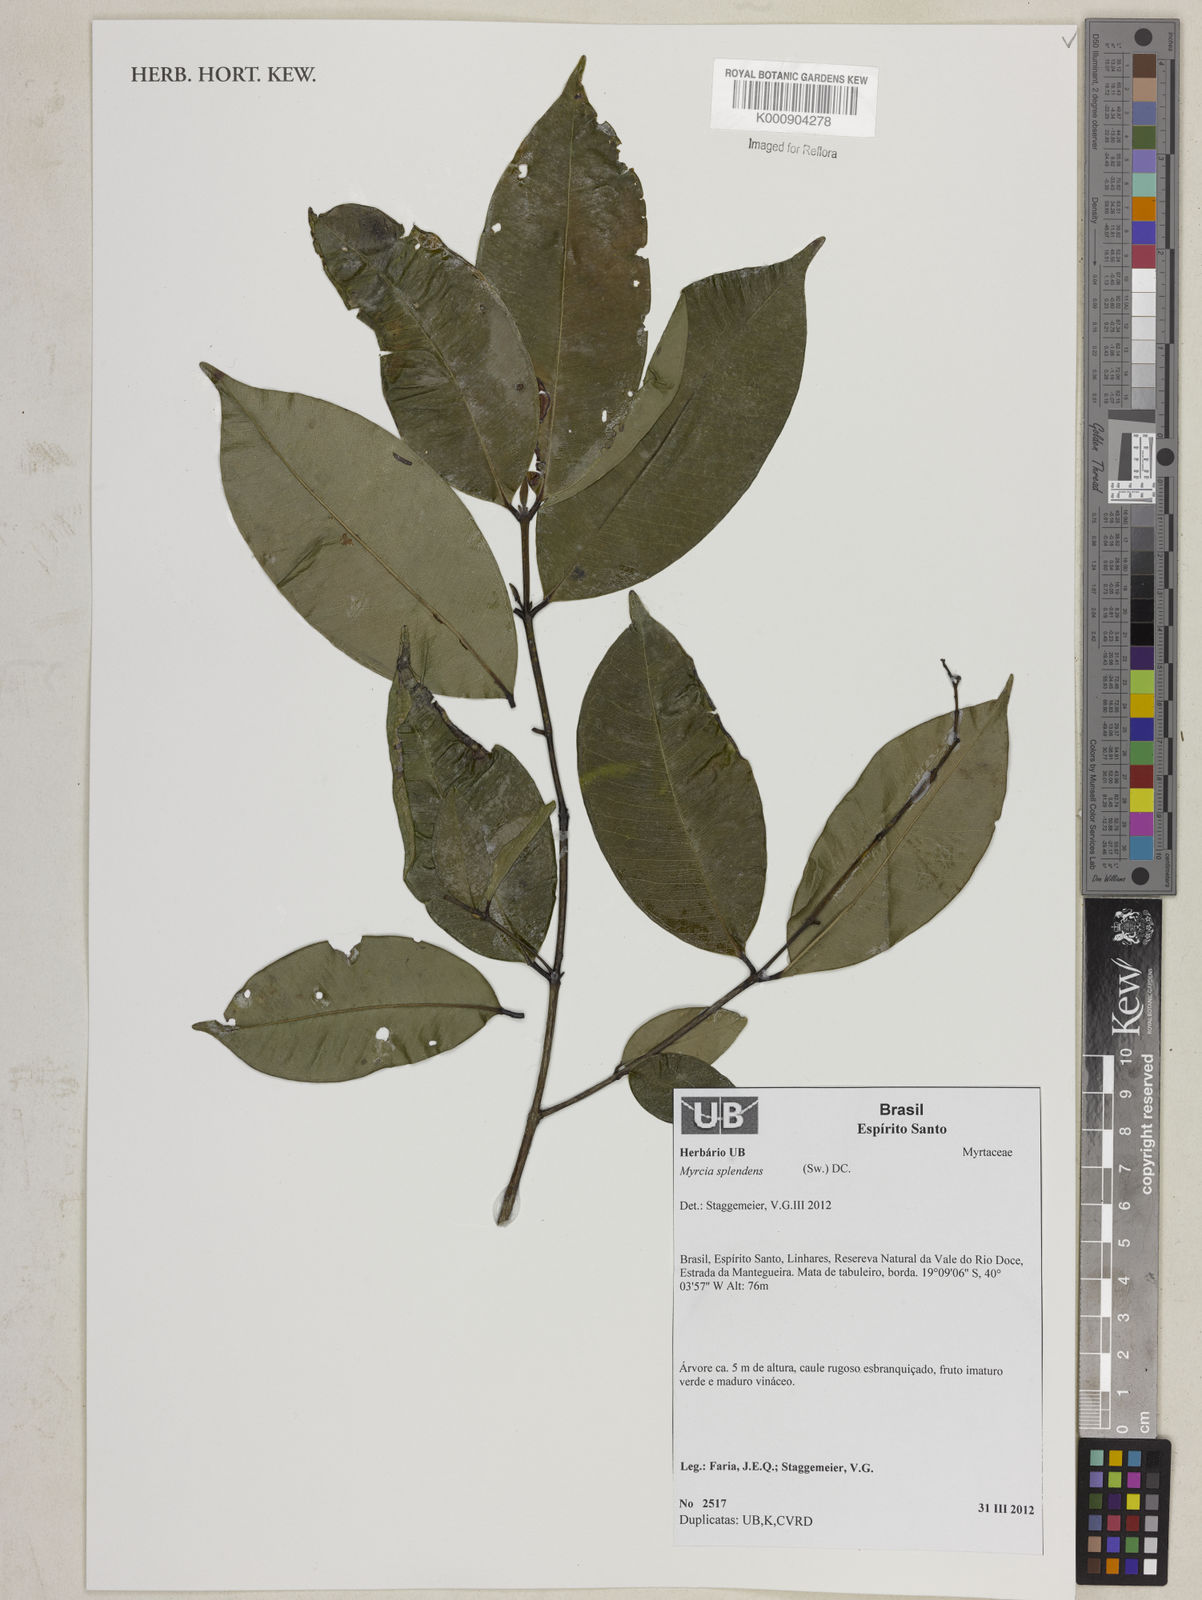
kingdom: Plantae
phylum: Tracheophyta
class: Magnoliopsida
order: Myrtales
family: Myrtaceae
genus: Myrcia
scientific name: Myrcia splendens
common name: Surinam cherry
